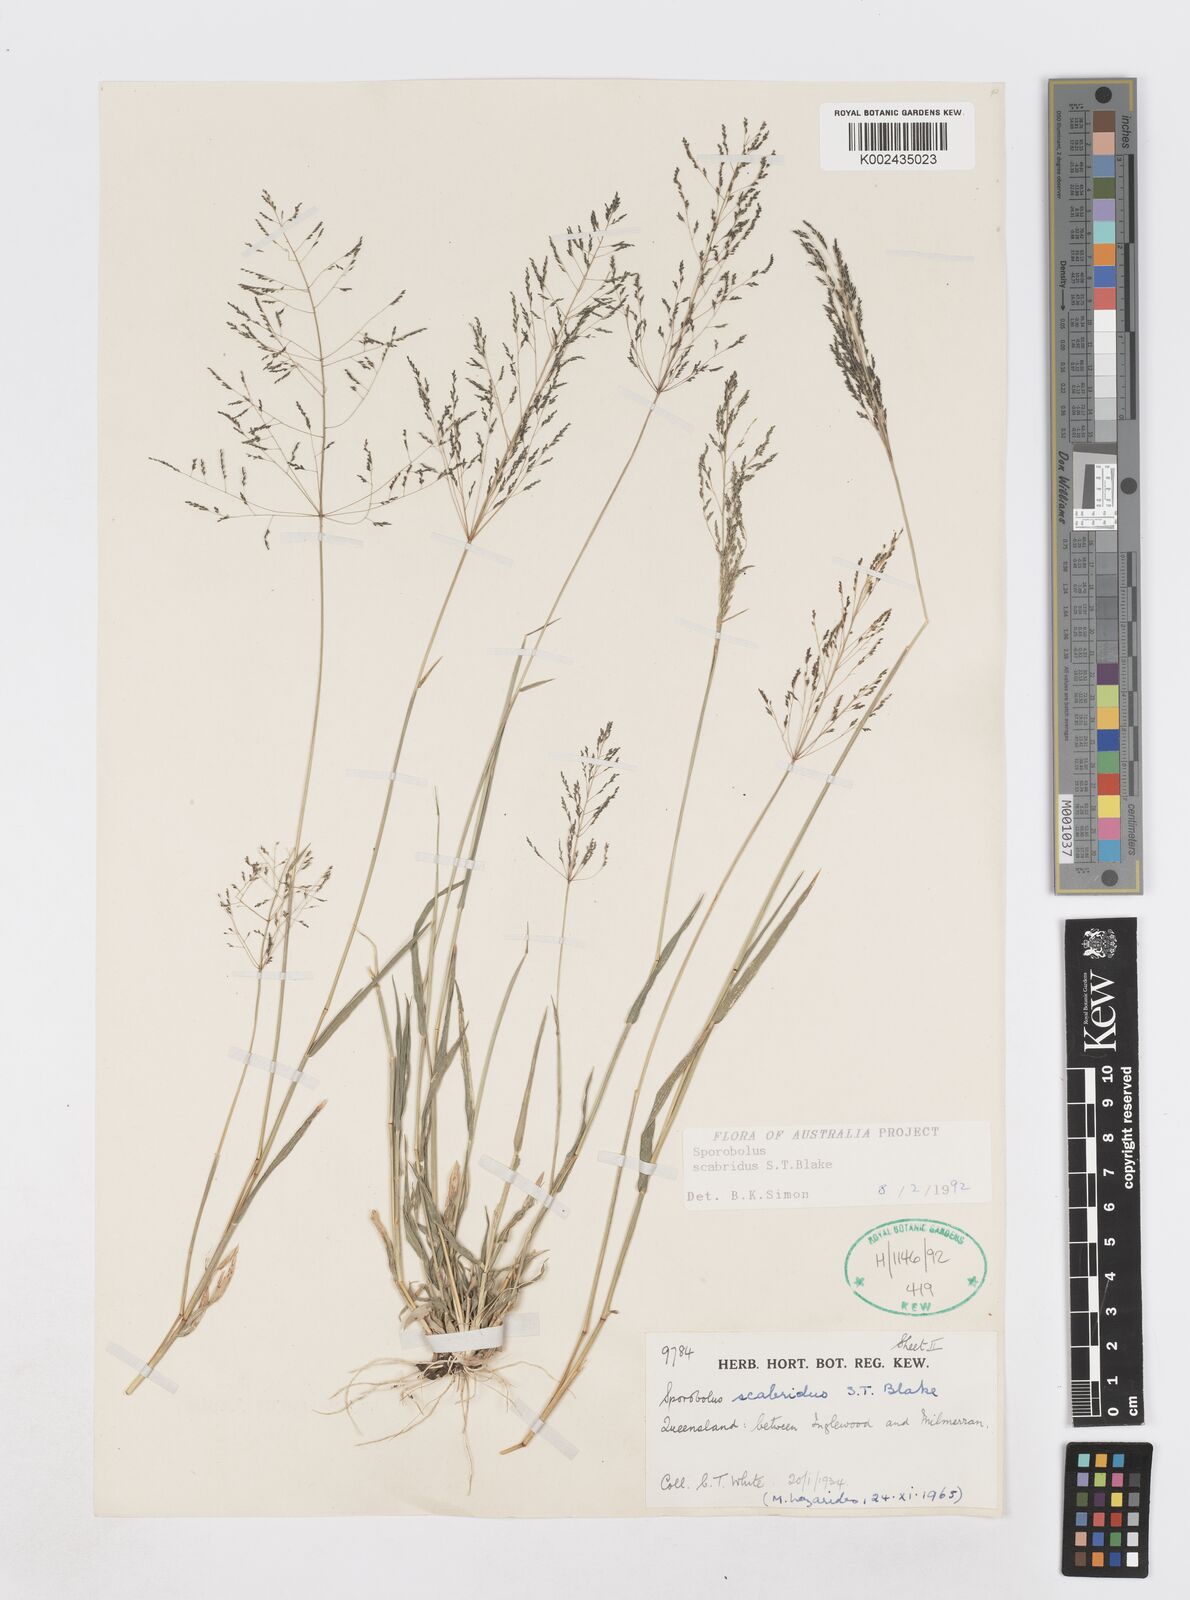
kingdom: Plantae
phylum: Tracheophyta
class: Liliopsida
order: Poales
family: Poaceae
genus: Sporobolus
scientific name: Sporobolus scabridus
